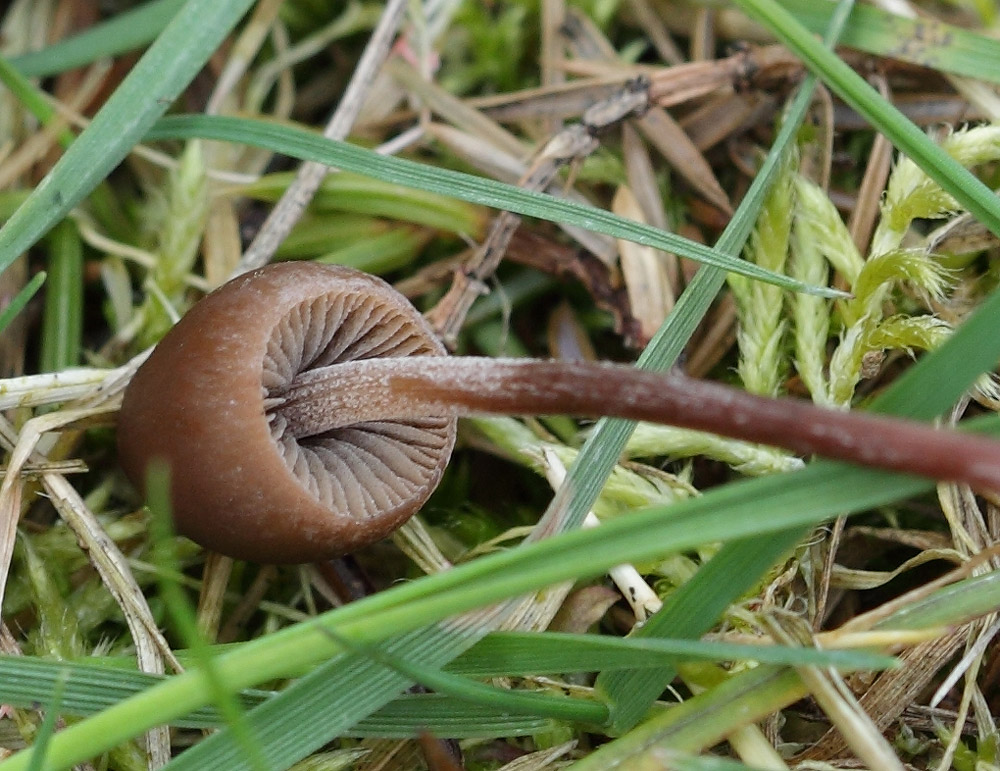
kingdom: Fungi
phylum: Basidiomycota
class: Agaricomycetes
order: Agaricales
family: Bolbitiaceae
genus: Panaeolus
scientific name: Panaeolus acuminatus
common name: høj glanshat
